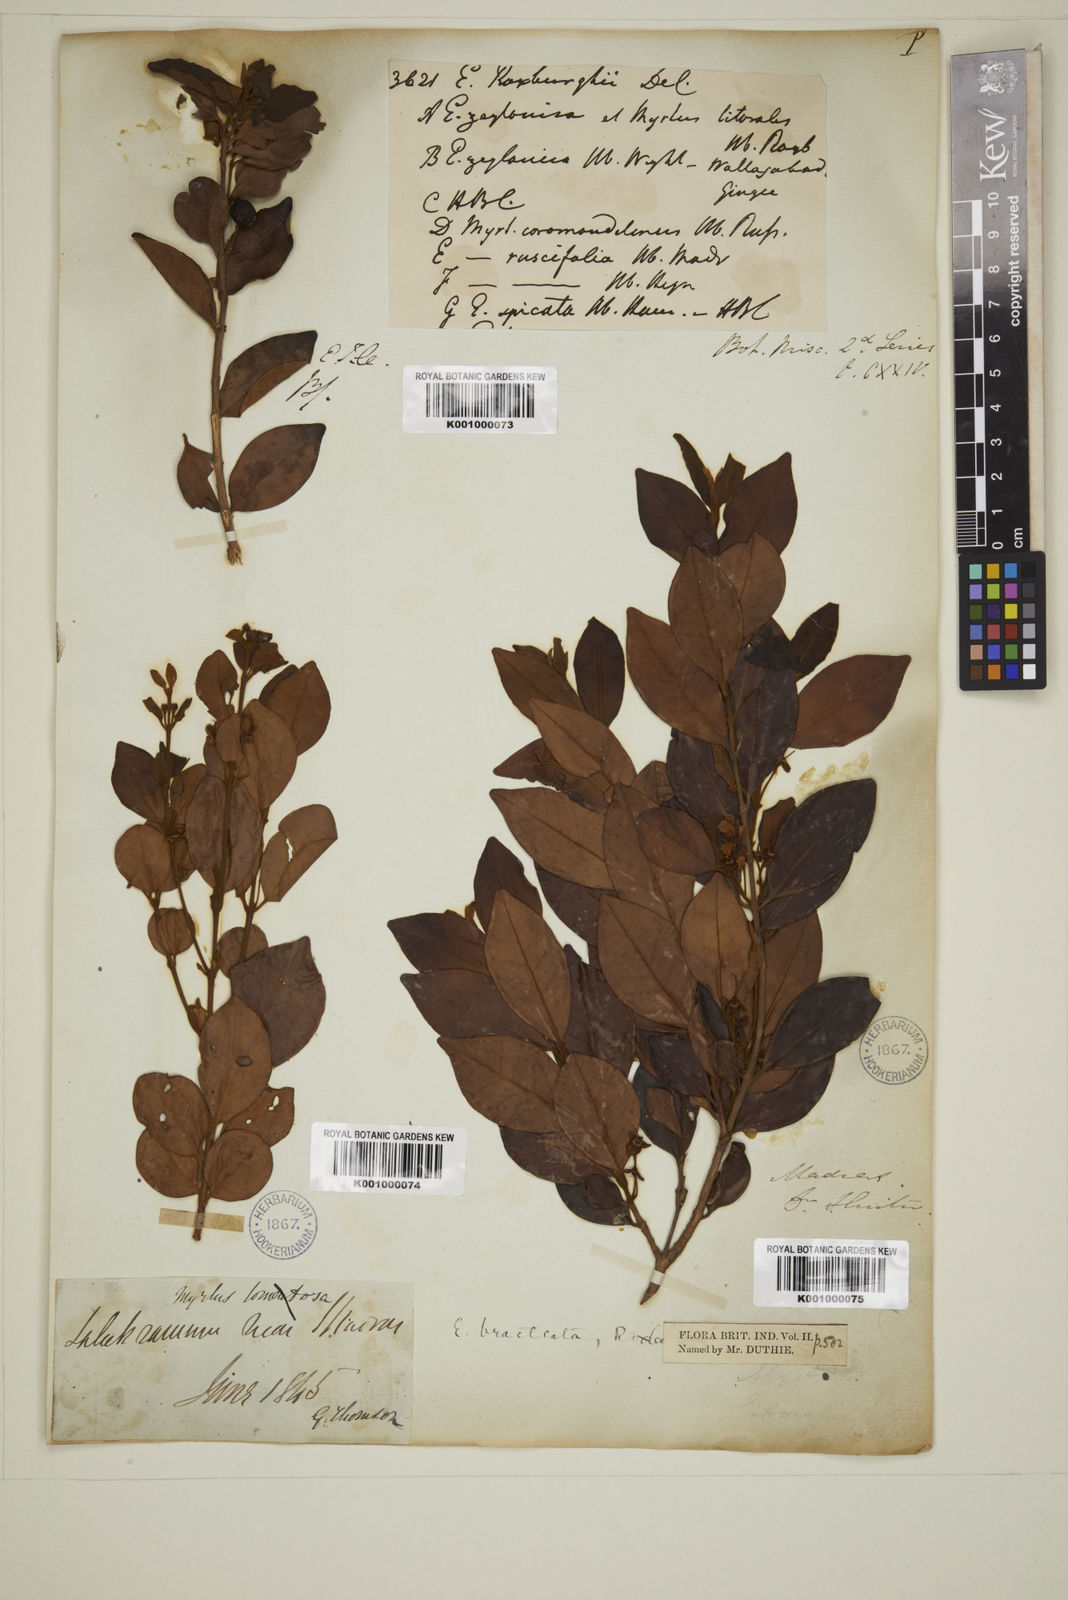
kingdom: Plantae
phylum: Tracheophyta
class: Magnoliopsida
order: Myrtales
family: Myrtaceae
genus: Myrcia
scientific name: Myrcia bracteata
